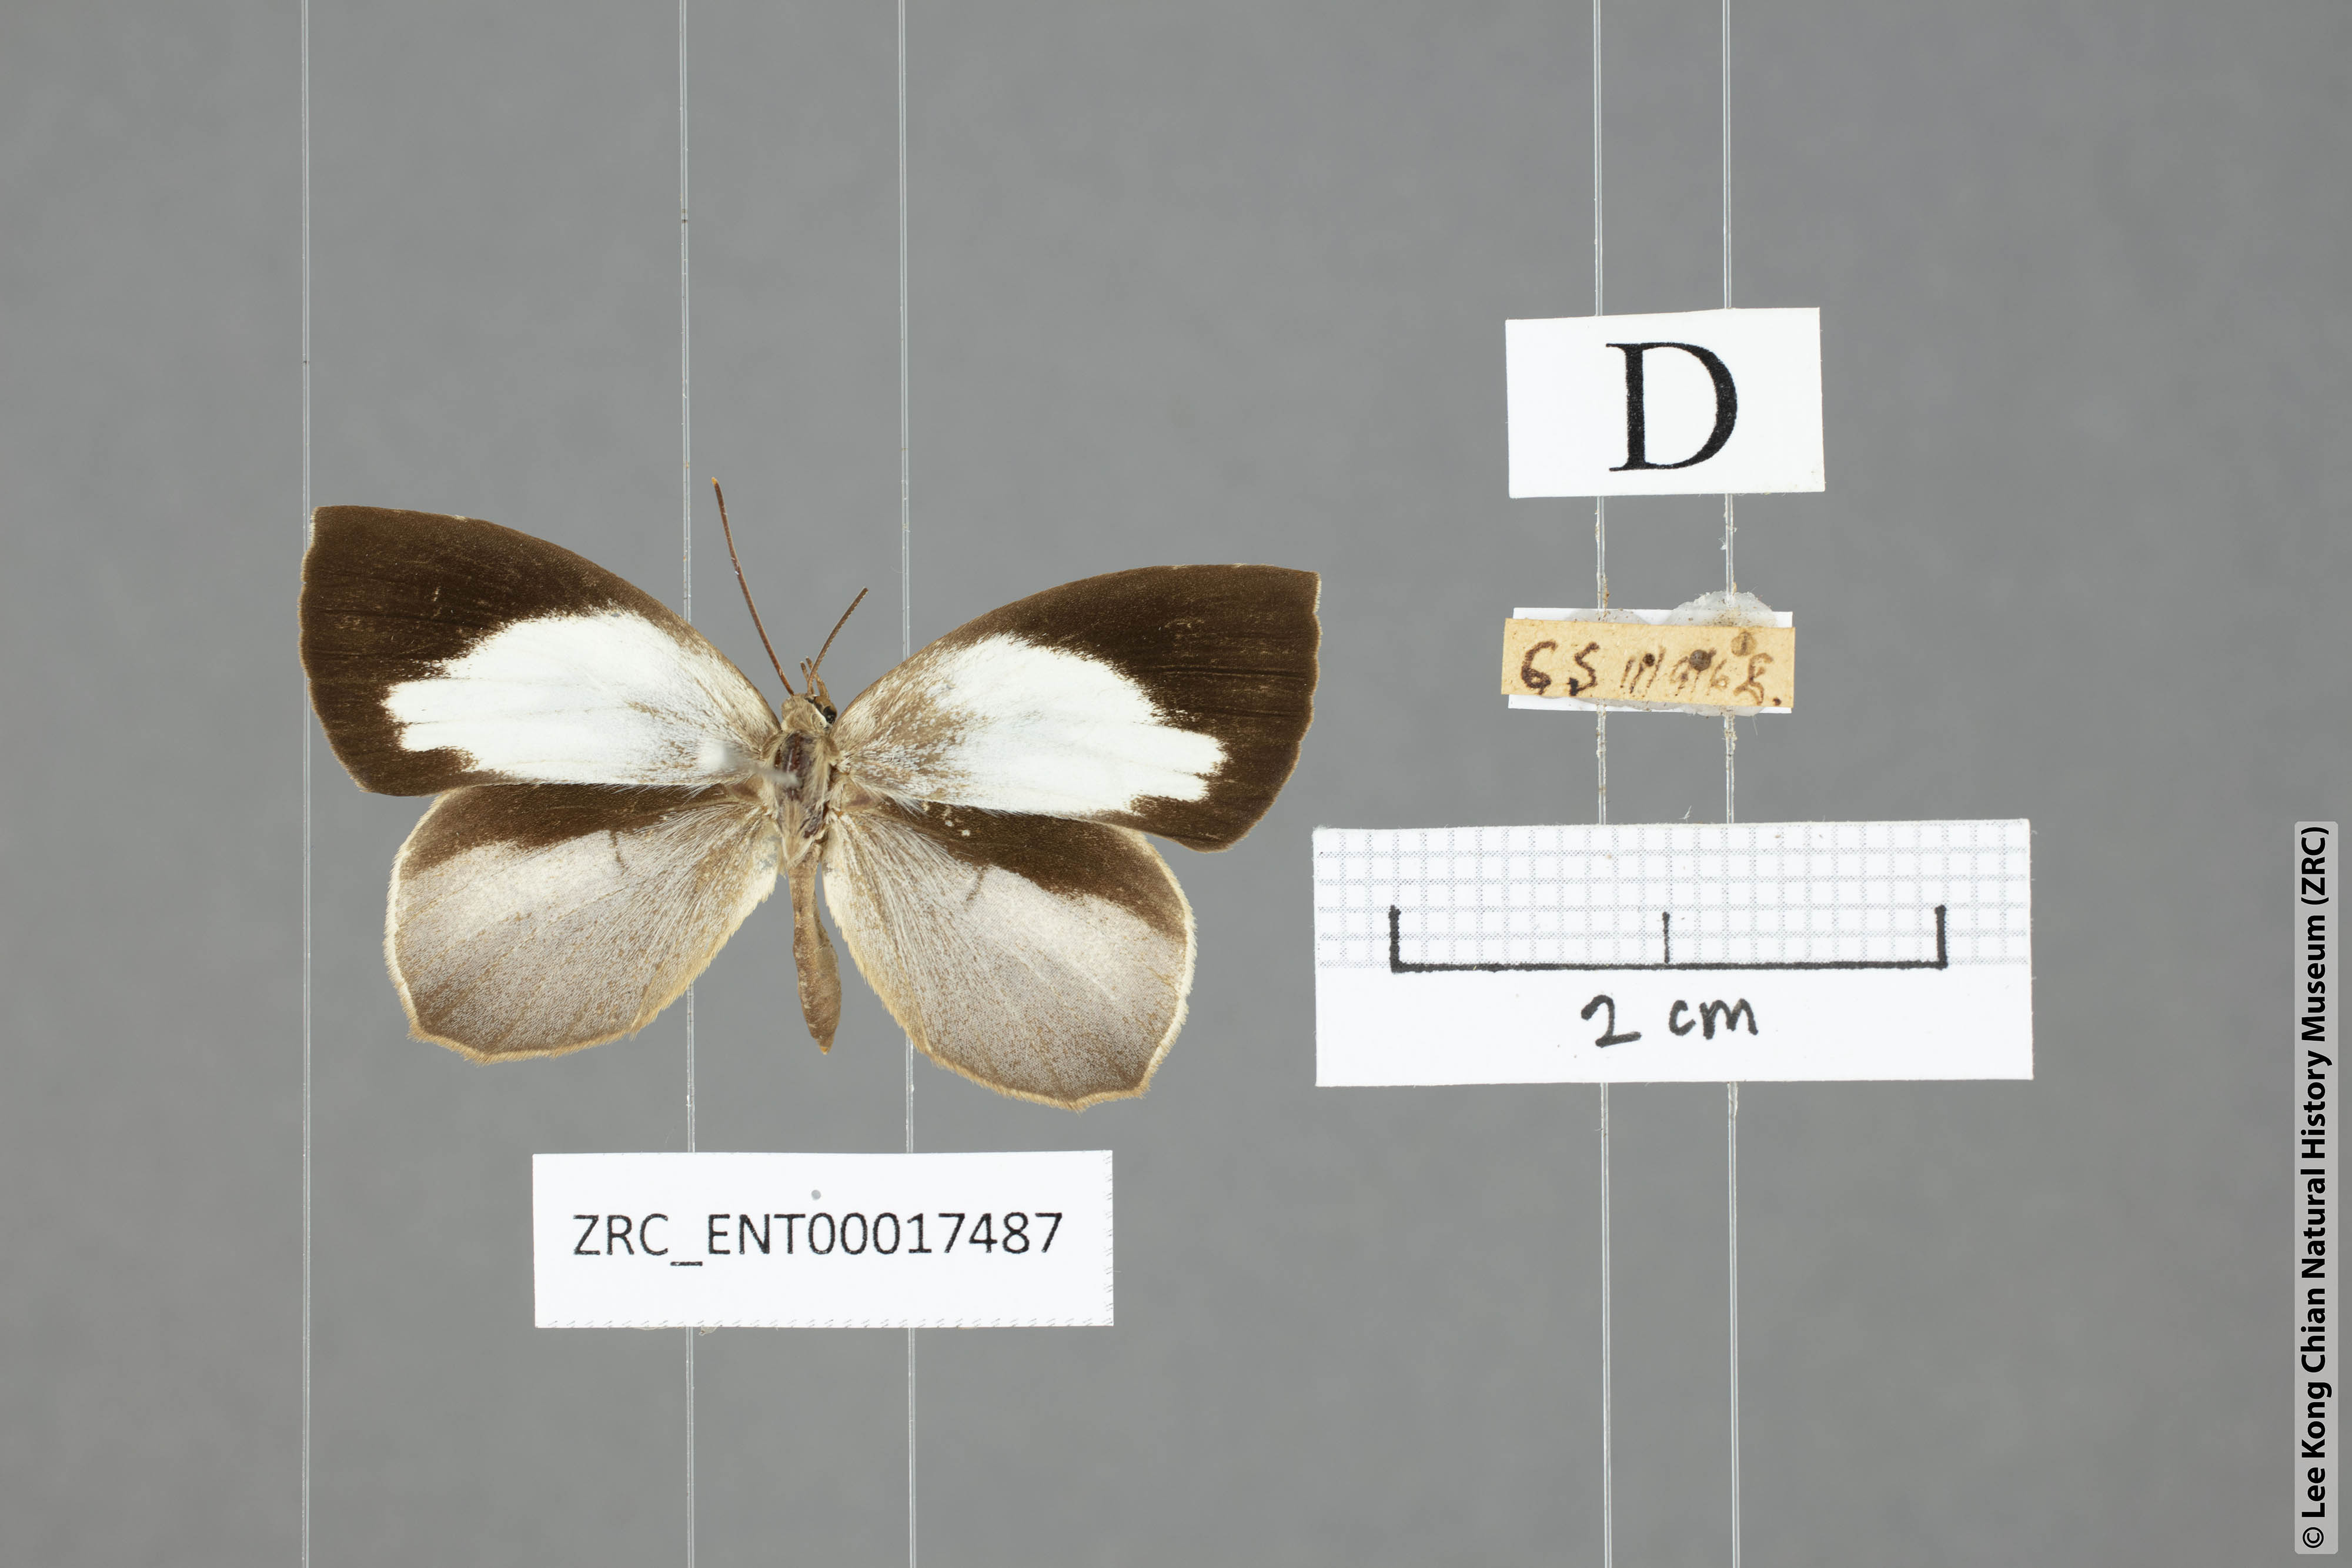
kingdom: Animalia
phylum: Arthropoda
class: Insecta
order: Lepidoptera
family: Lycaenidae
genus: Miletus
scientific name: Miletus symethus
